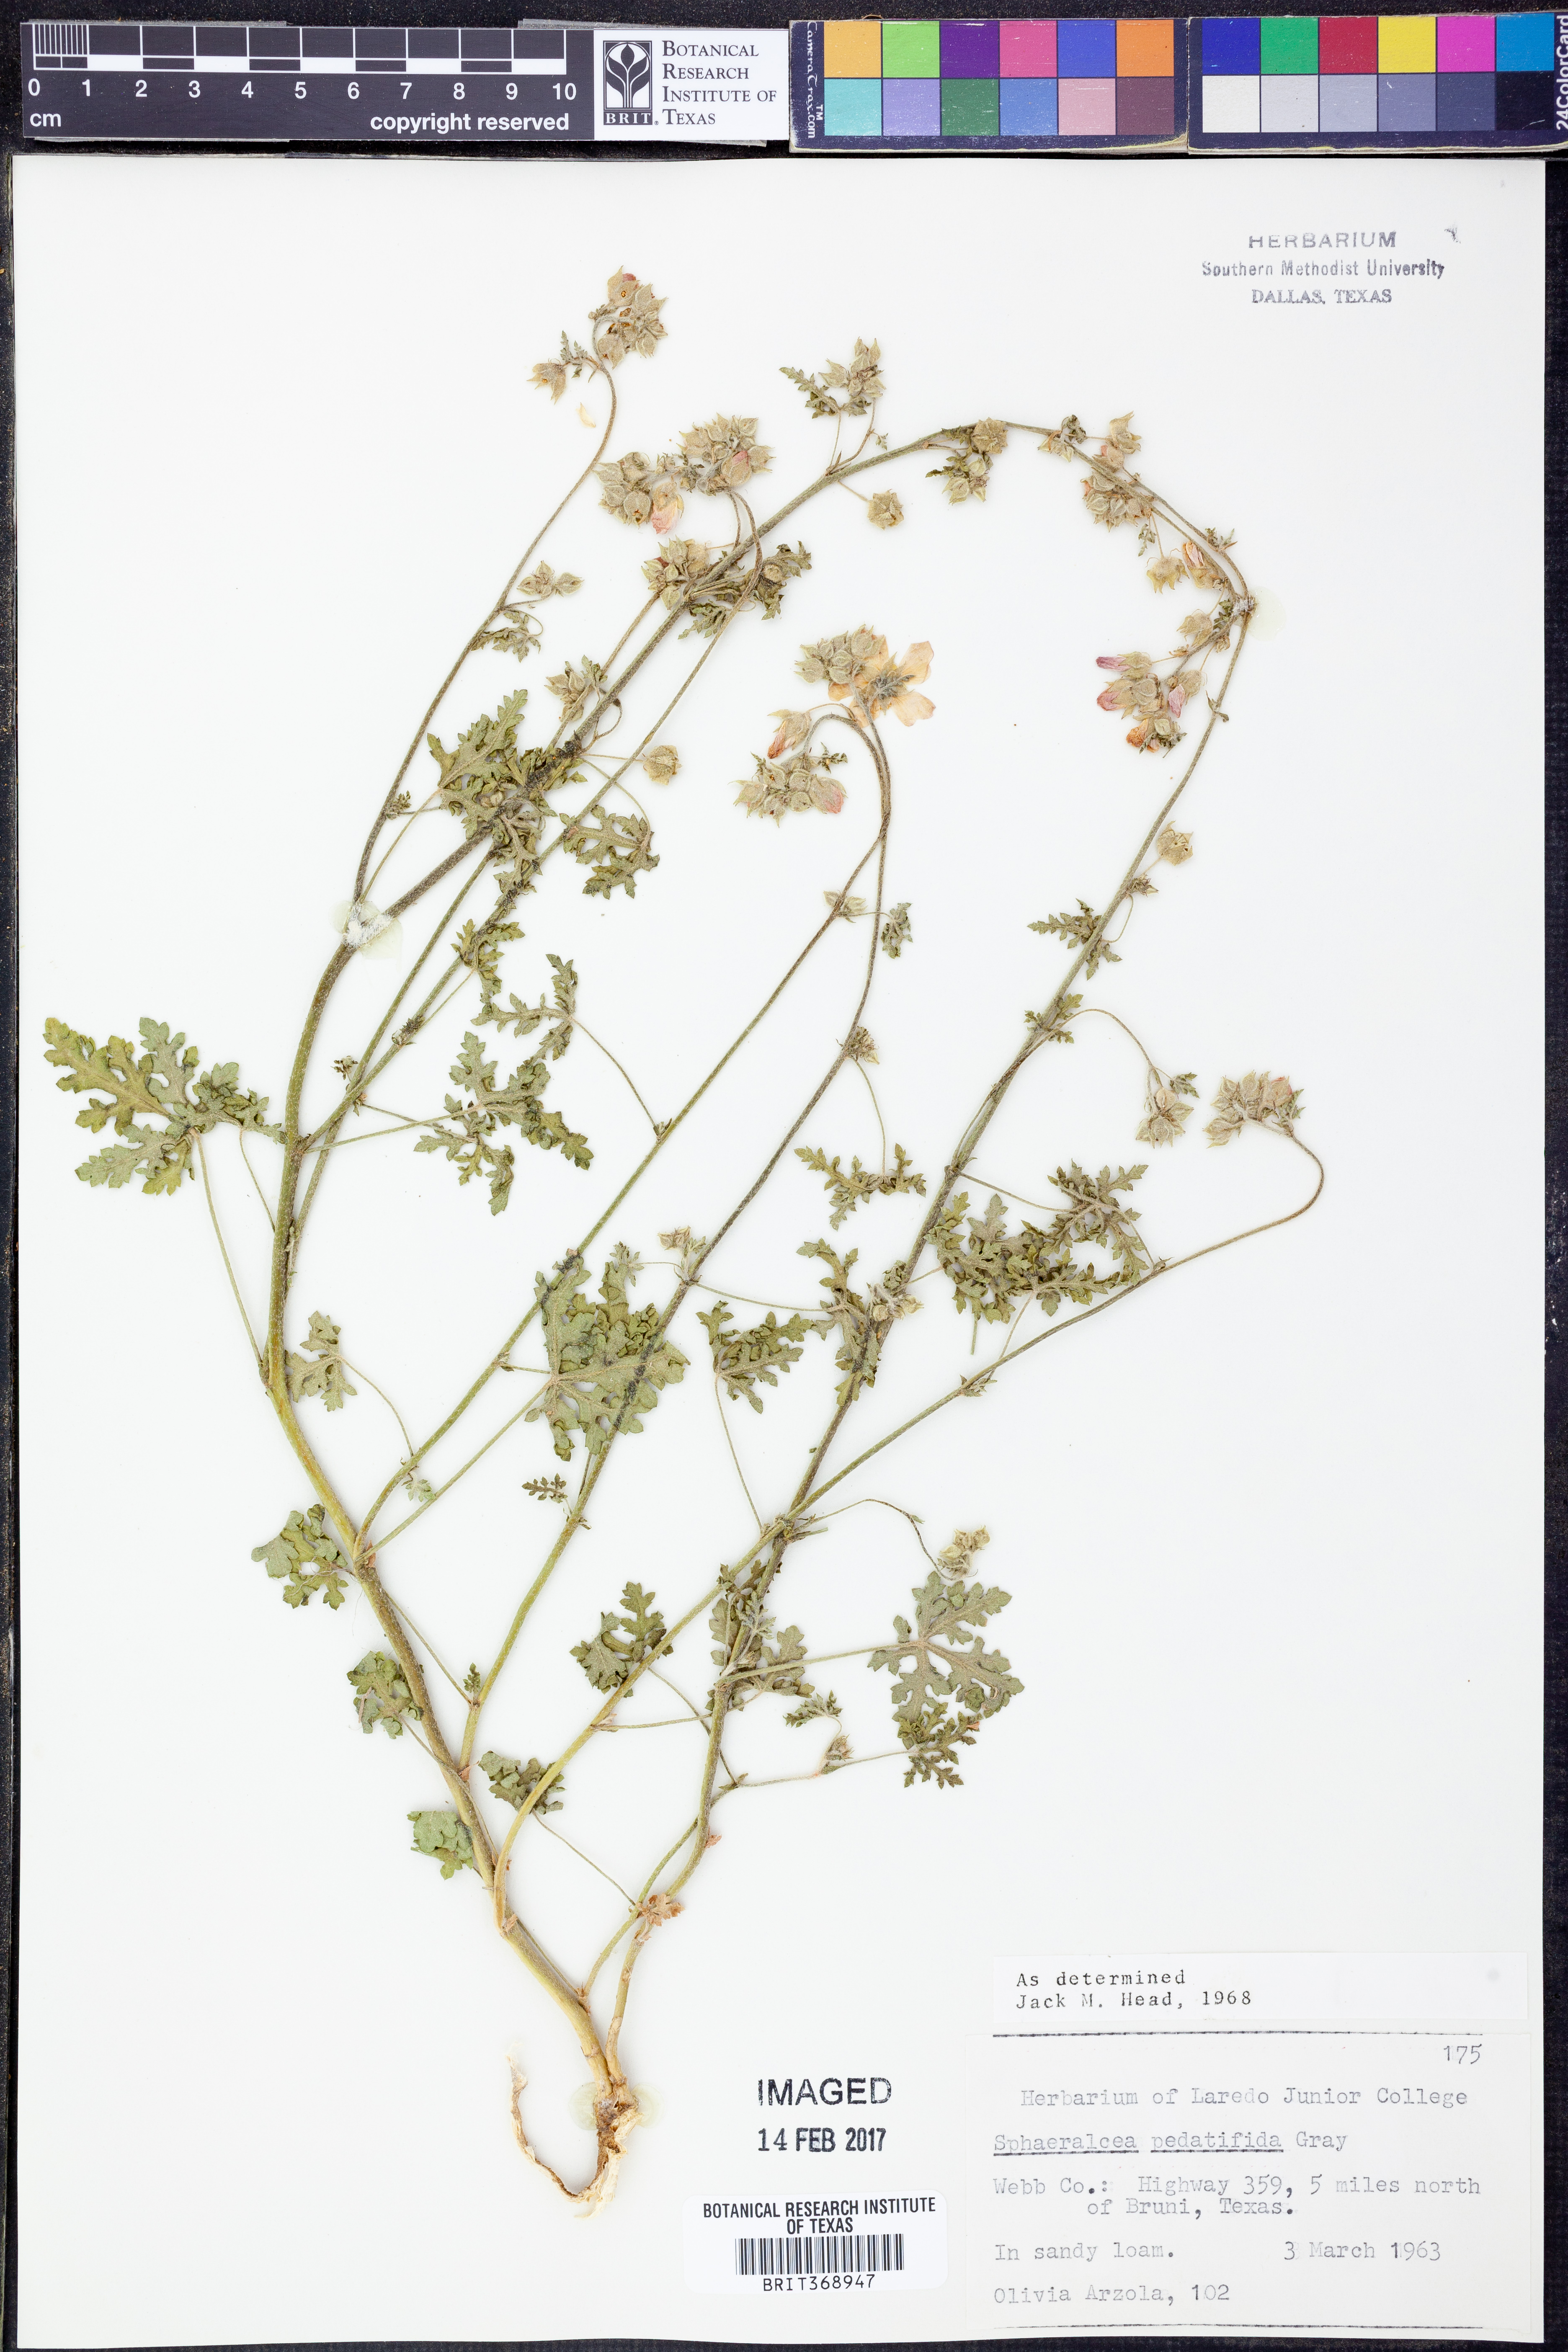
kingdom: Plantae
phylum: Tracheophyta
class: Magnoliopsida
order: Malvales
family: Malvaceae
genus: Sphaeralcea
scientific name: Sphaeralcea pedatifida
